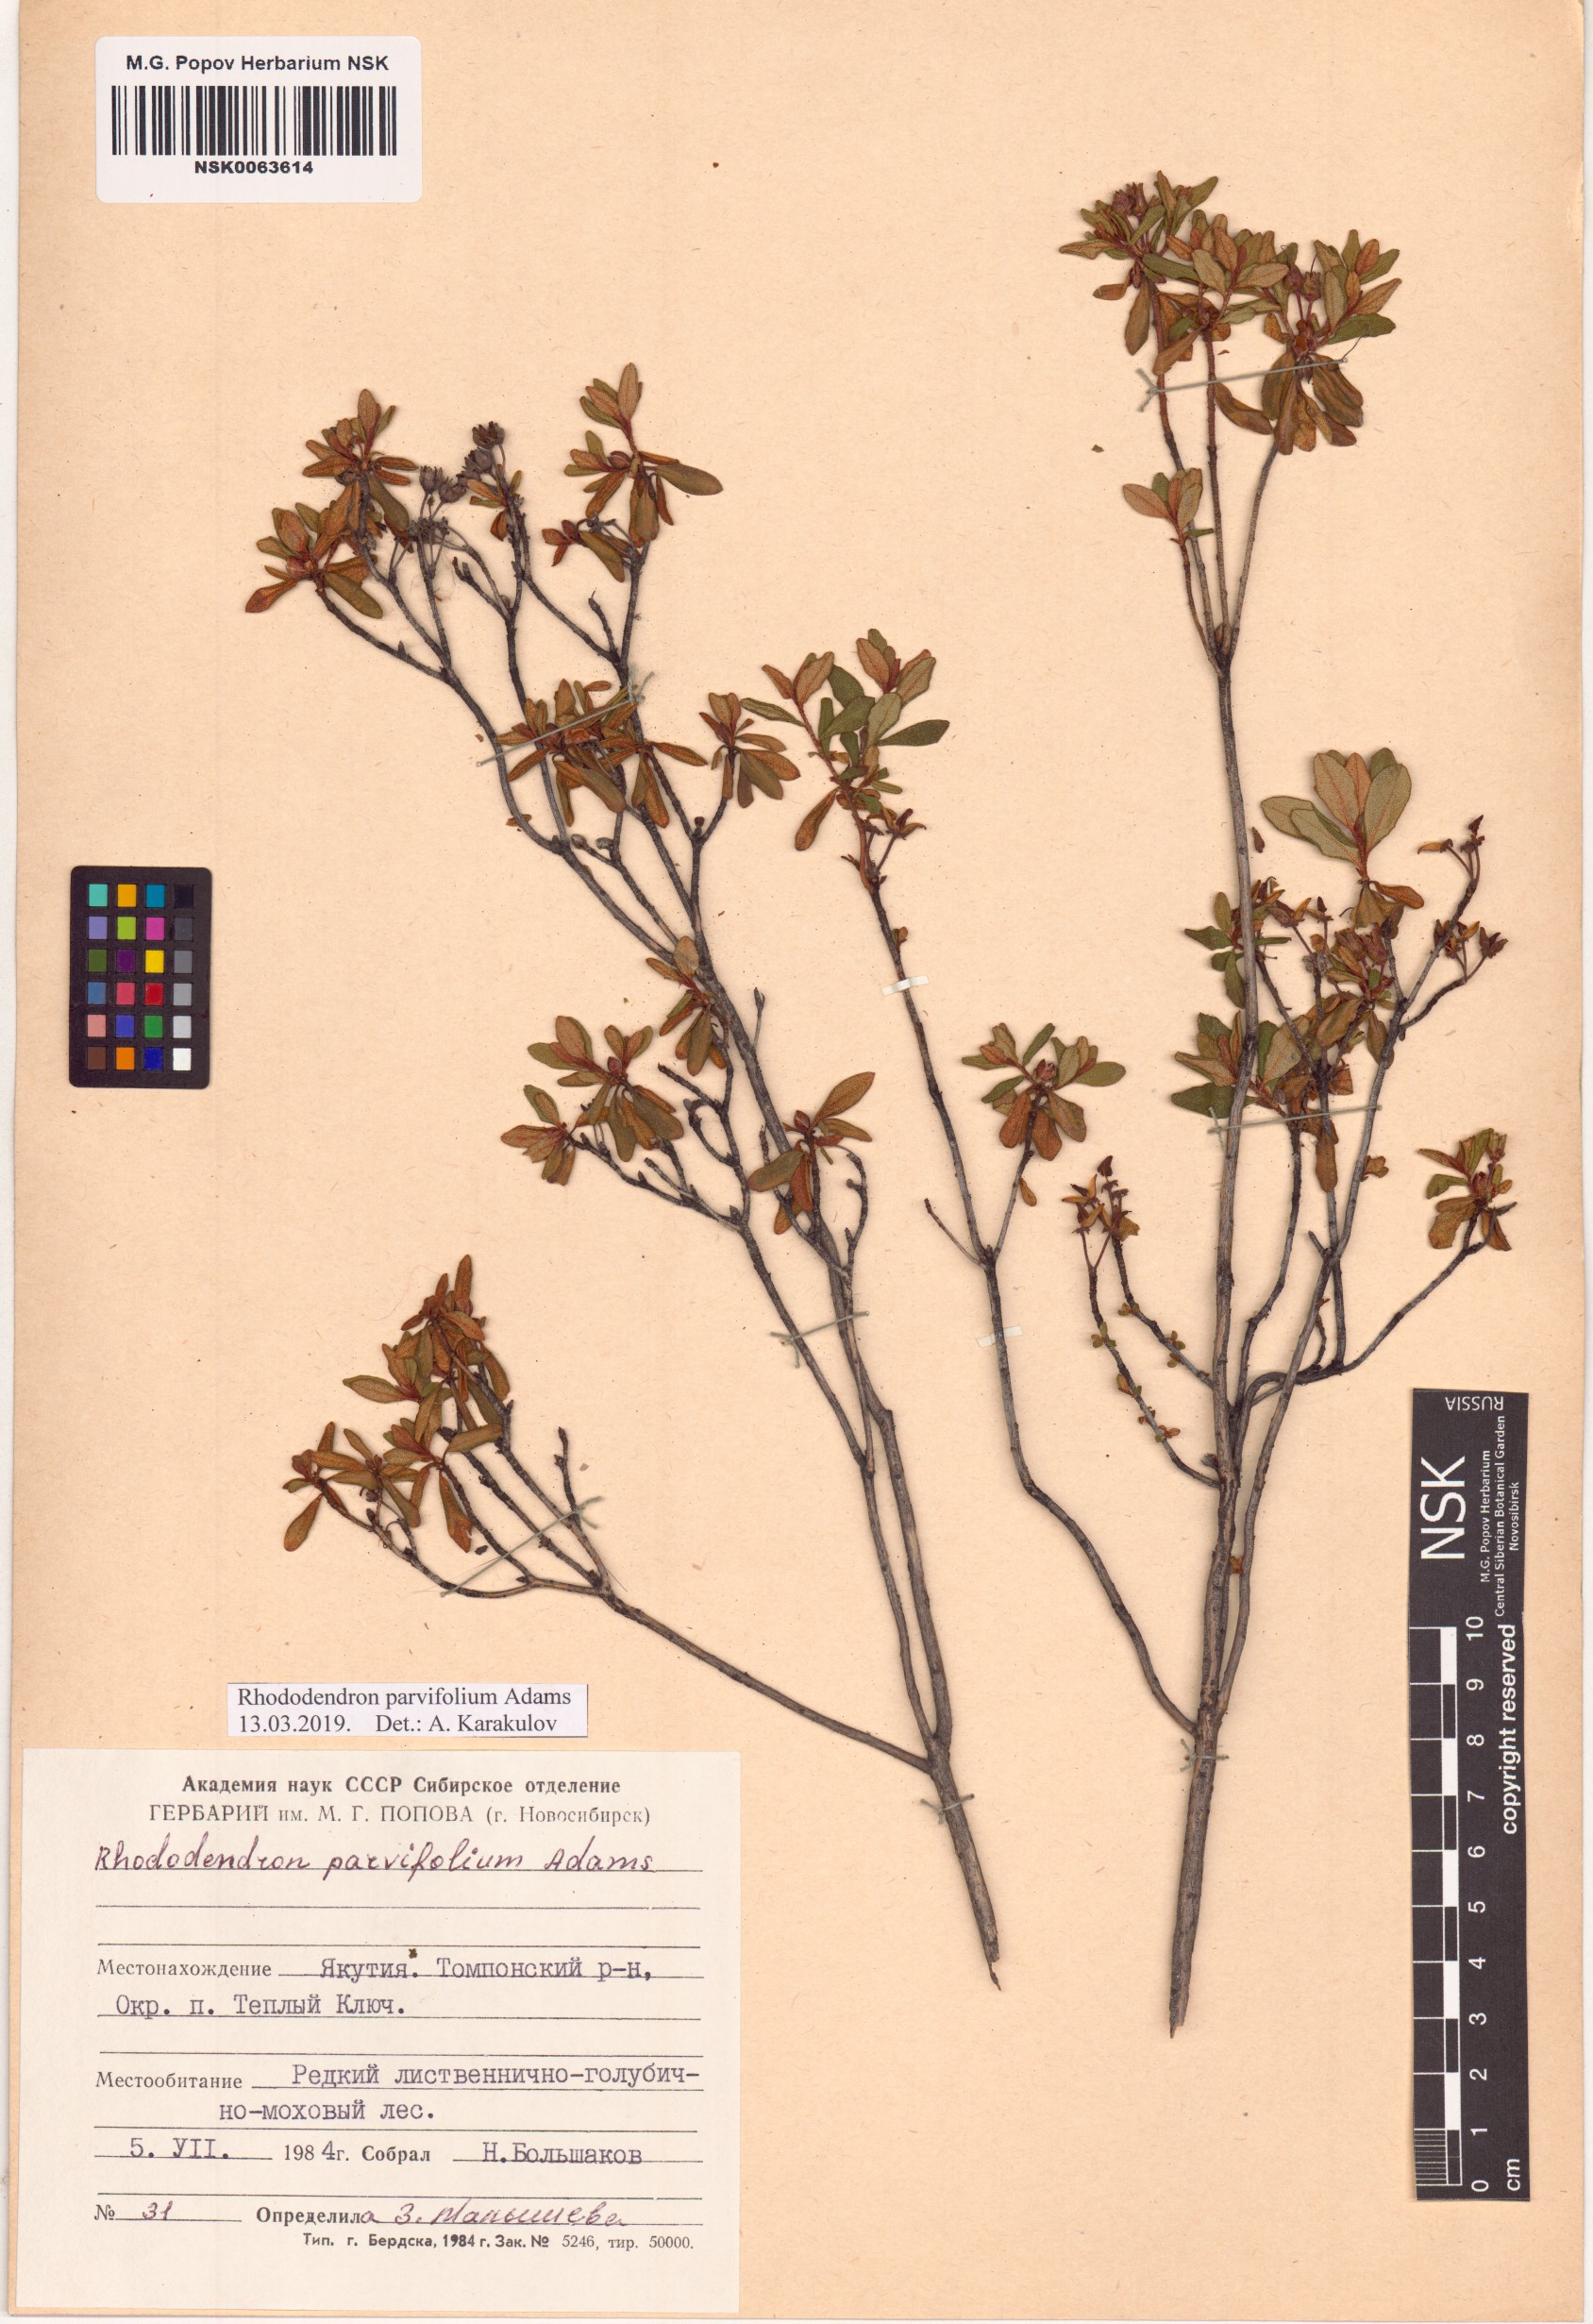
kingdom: Plantae
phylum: Tracheophyta
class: Magnoliopsida
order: Ericales
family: Ericaceae
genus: Rhododendron
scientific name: Rhododendron parvifolium
